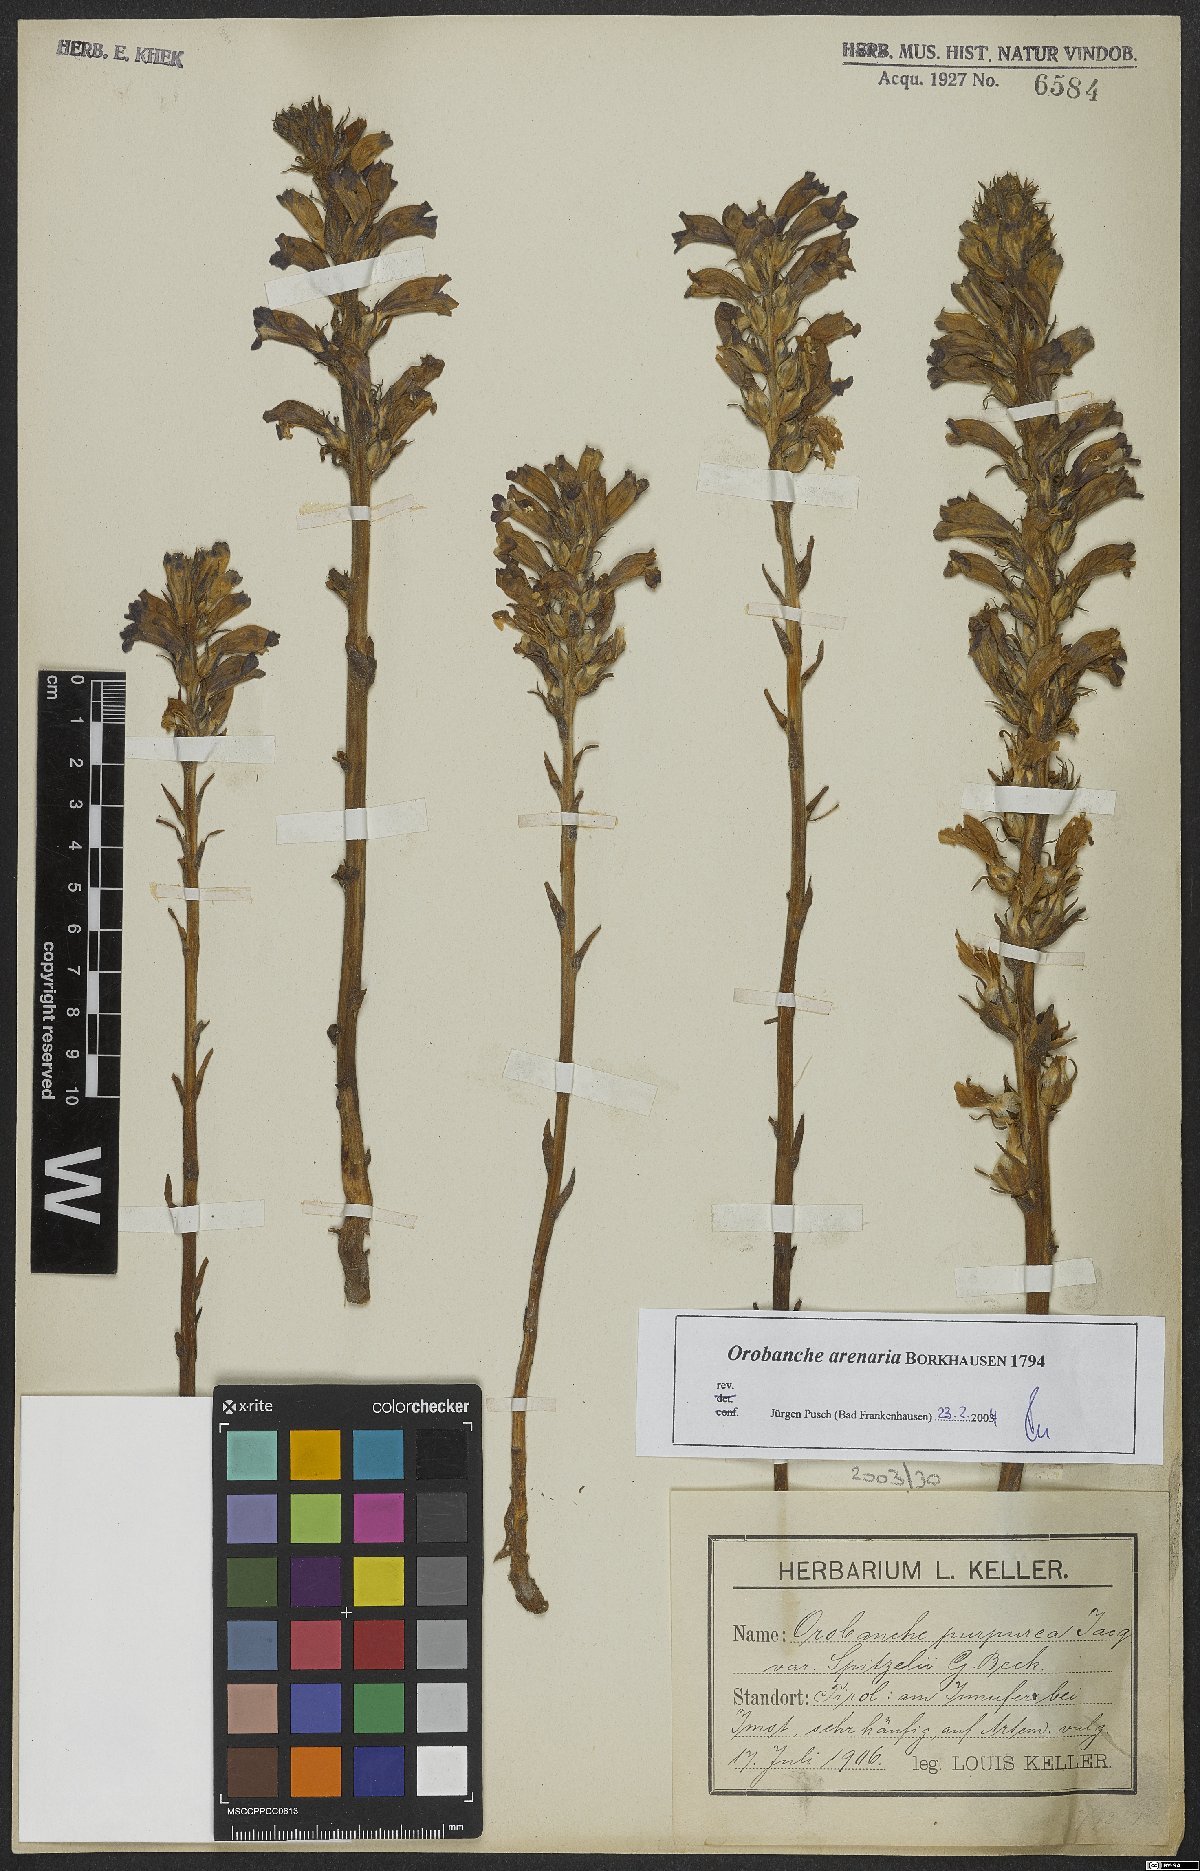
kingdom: Plantae
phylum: Tracheophyta
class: Magnoliopsida
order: Lamiales
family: Orobanchaceae
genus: Phelipanche
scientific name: Phelipanche arenaria
